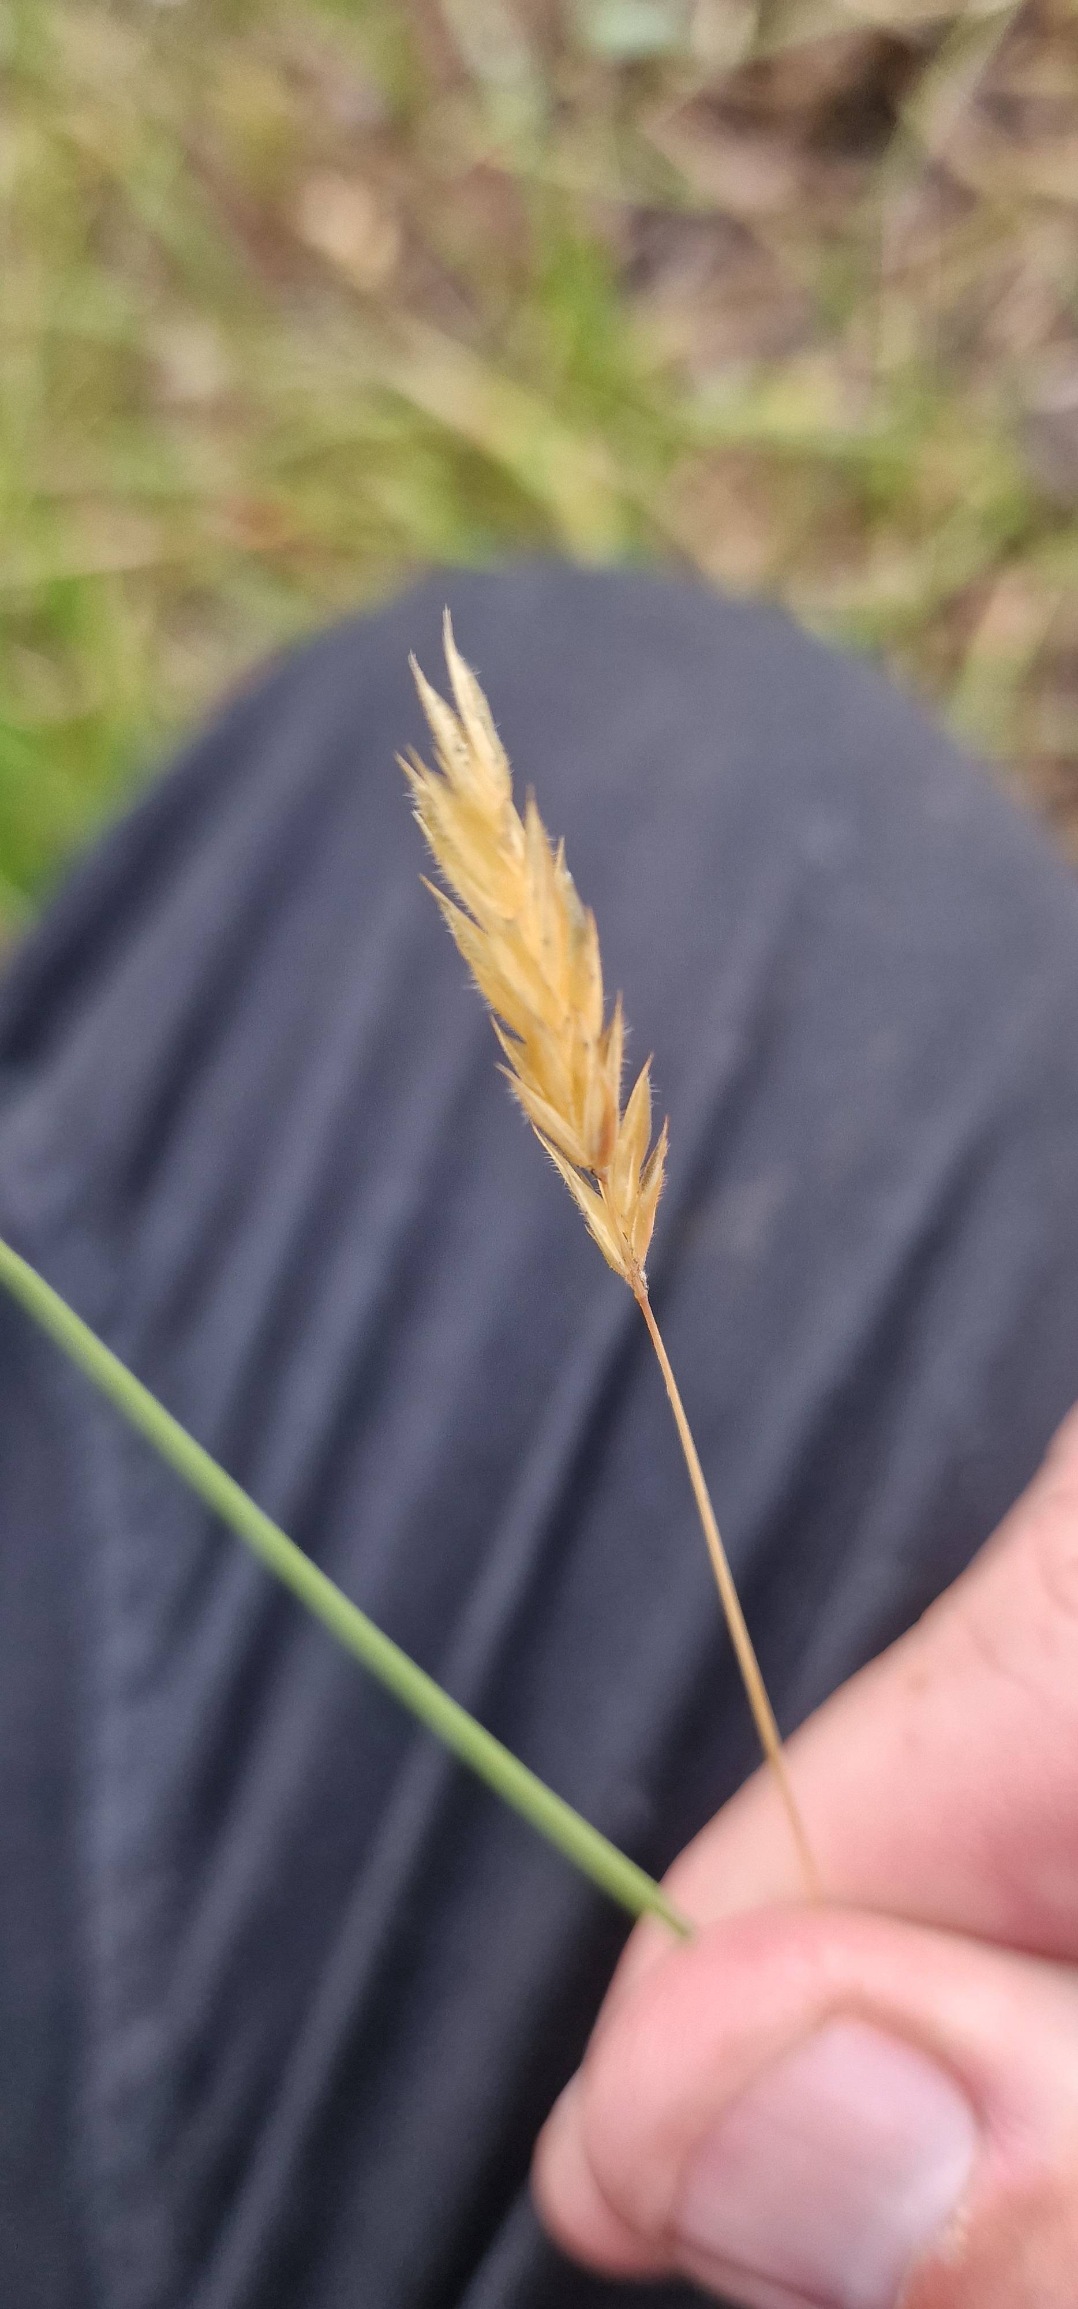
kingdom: Plantae
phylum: Tracheophyta
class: Liliopsida
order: Poales
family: Poaceae
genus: Anthoxanthum
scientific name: Anthoxanthum odoratum
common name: Vellugtende gulaks
